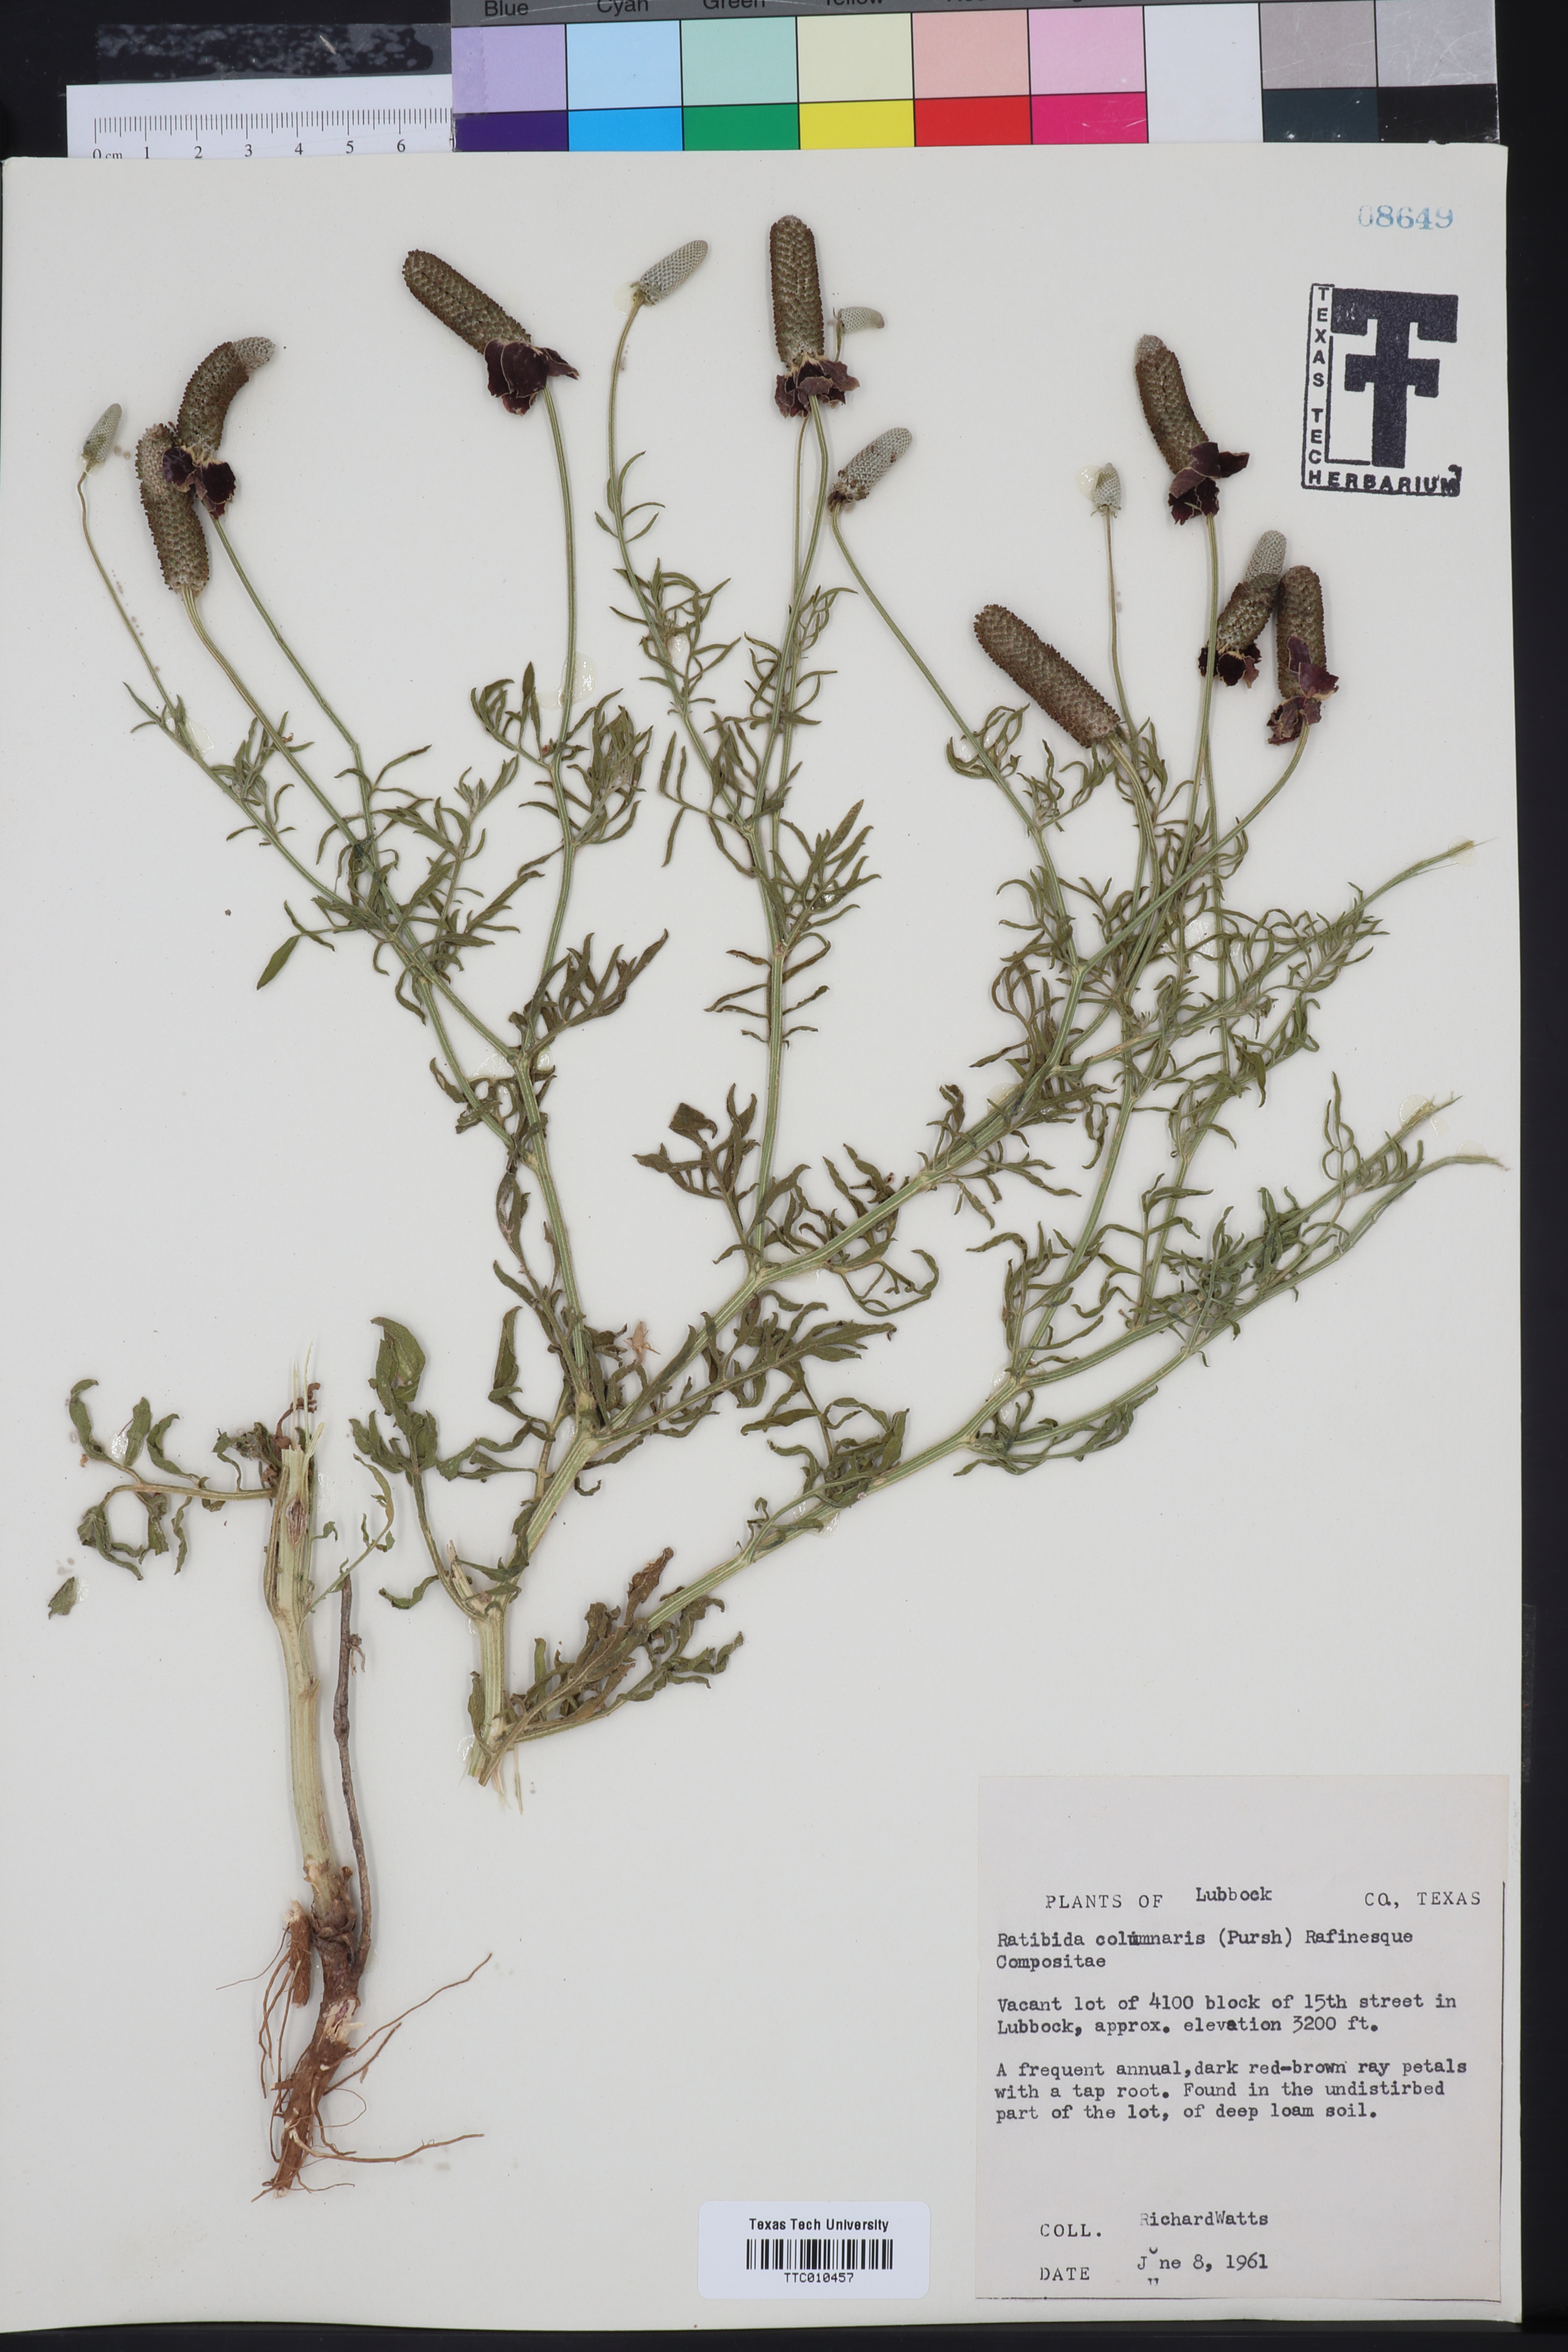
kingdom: Plantae
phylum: Tracheophyta
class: Magnoliopsida
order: Asterales
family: Asteraceae
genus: Ratibida
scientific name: Ratibida columnifera
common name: Prairie coneflower
